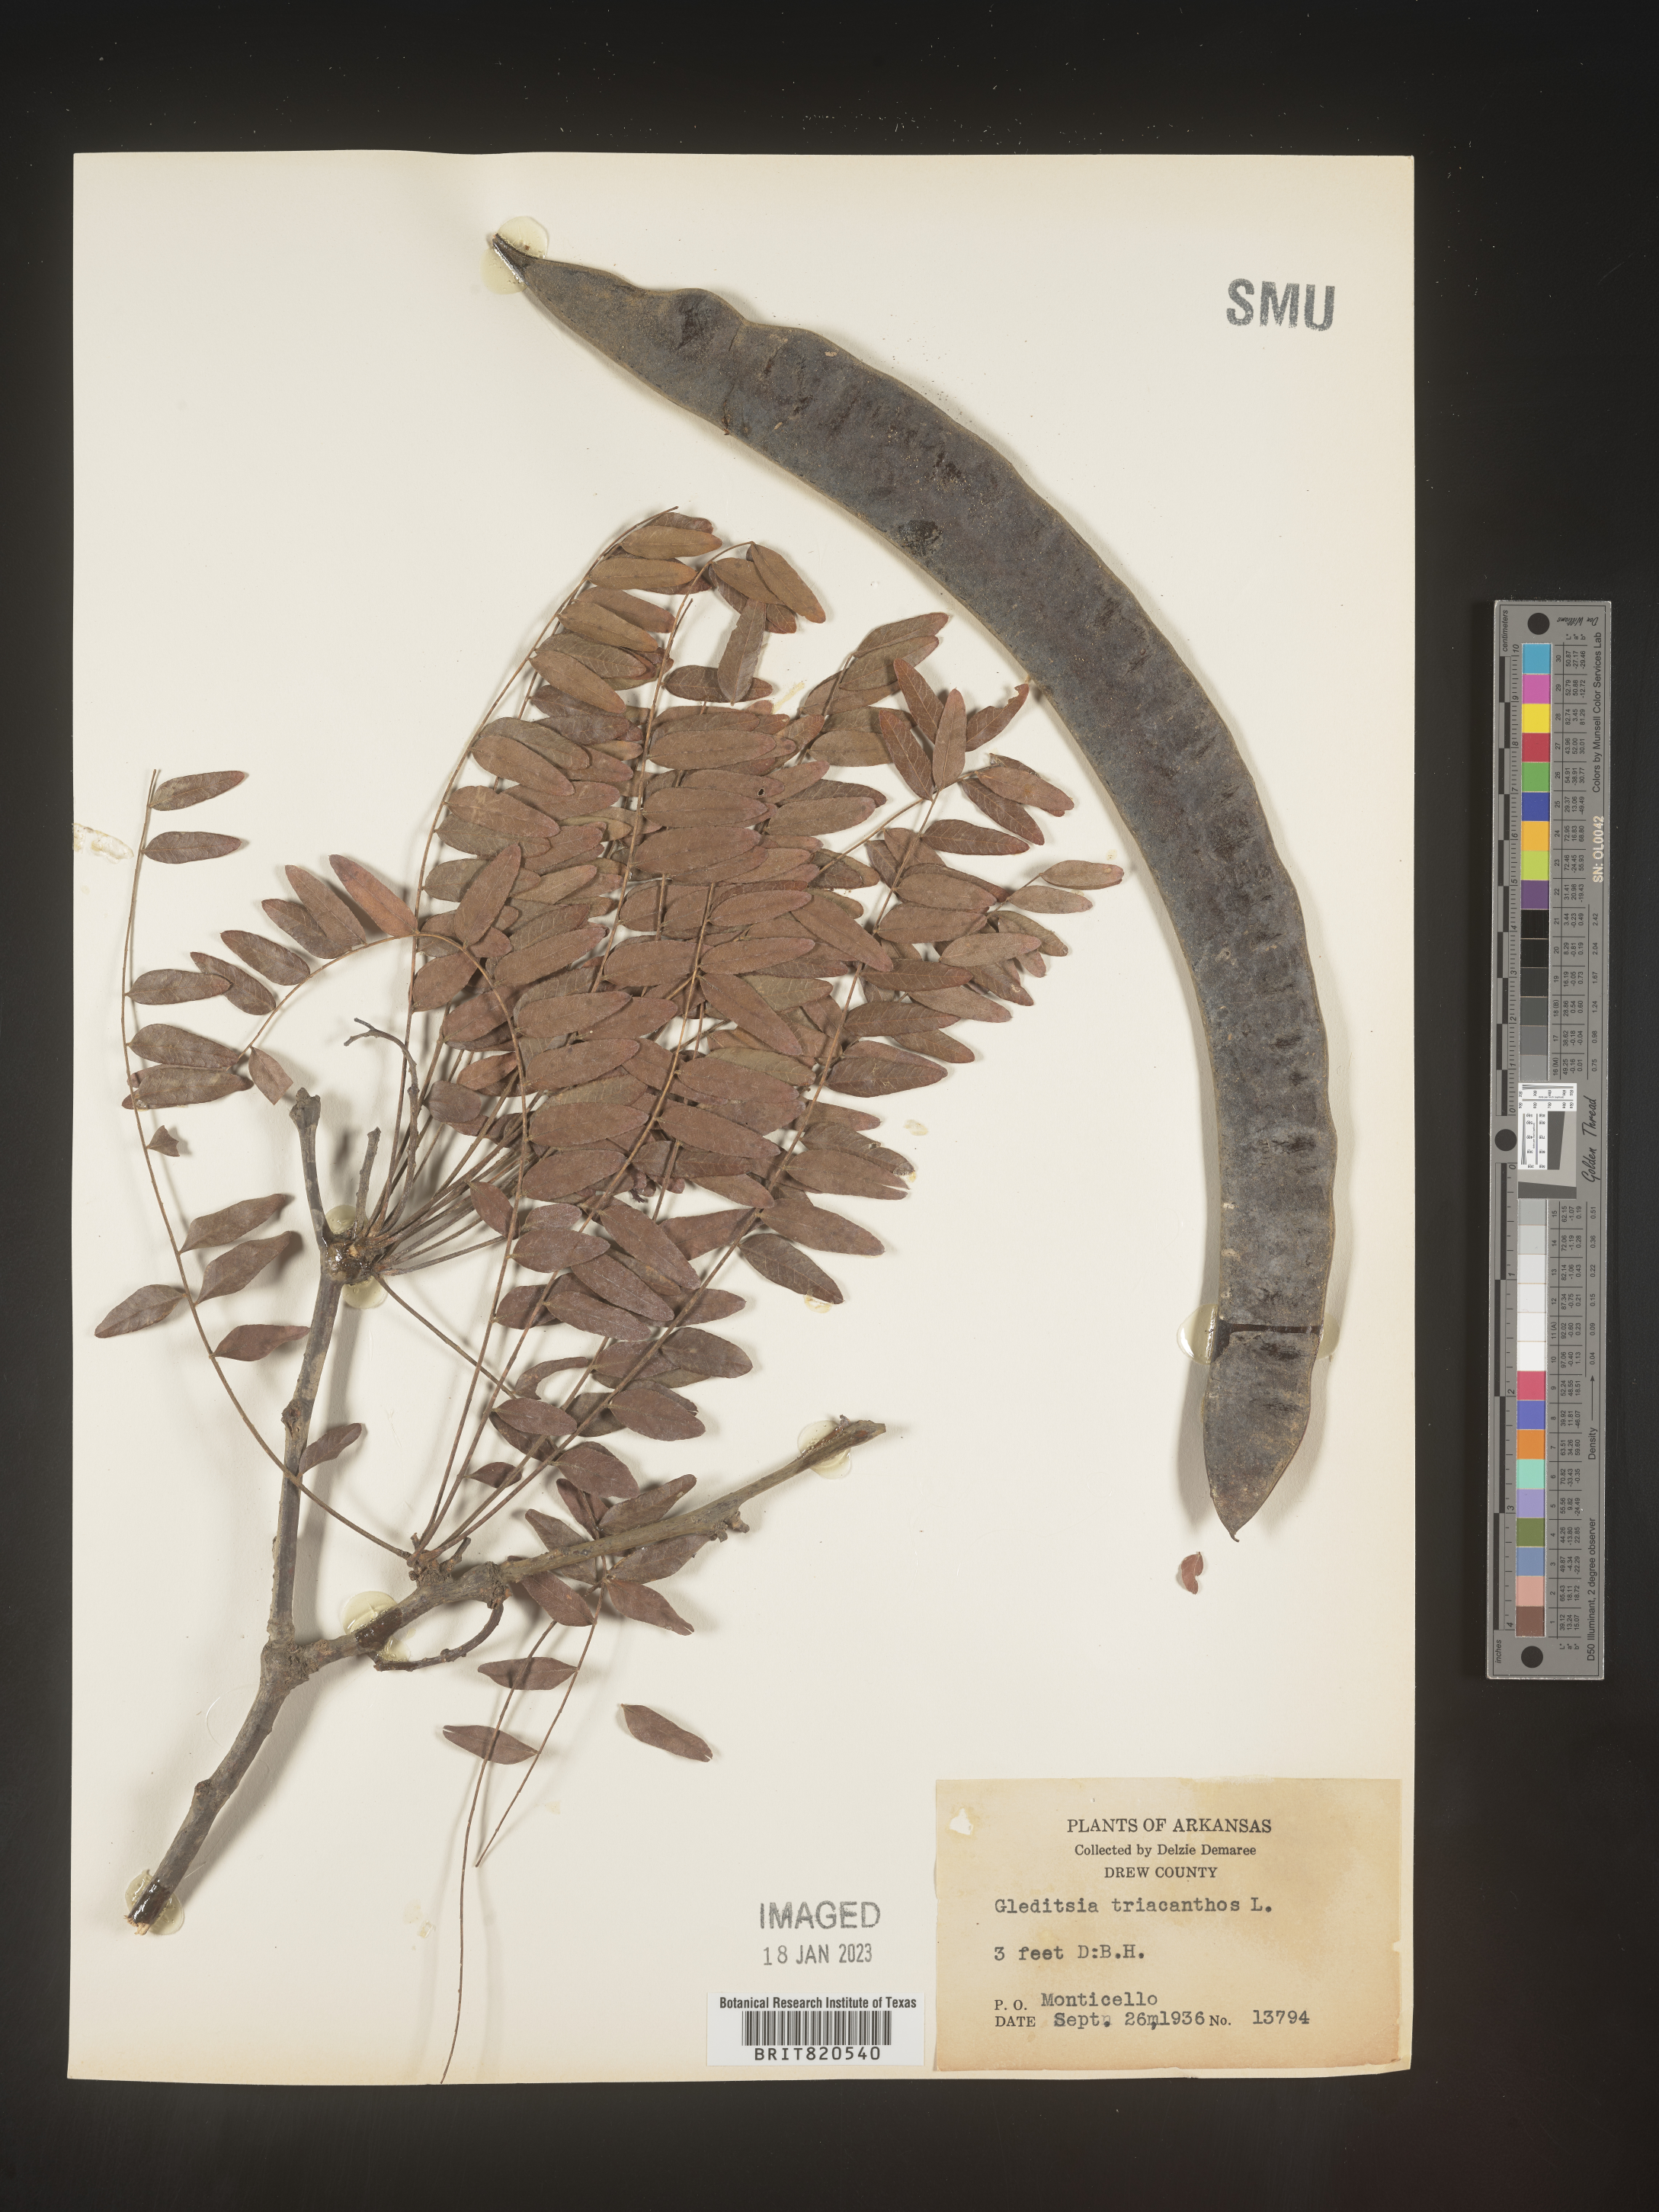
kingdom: Plantae
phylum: Tracheophyta
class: Magnoliopsida
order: Fabales
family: Fabaceae
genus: Gleditsia
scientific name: Gleditsia triacanthos
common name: Common honeylocust
